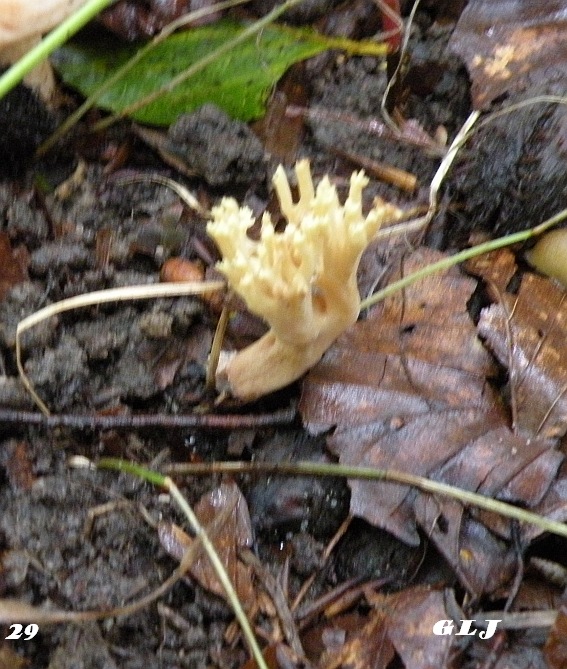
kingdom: Fungi
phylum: Basidiomycota
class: Agaricomycetes
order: Gomphales
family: Gomphaceae
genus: Ramaria
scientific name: Ramaria stricta
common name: rank koralsvamp
